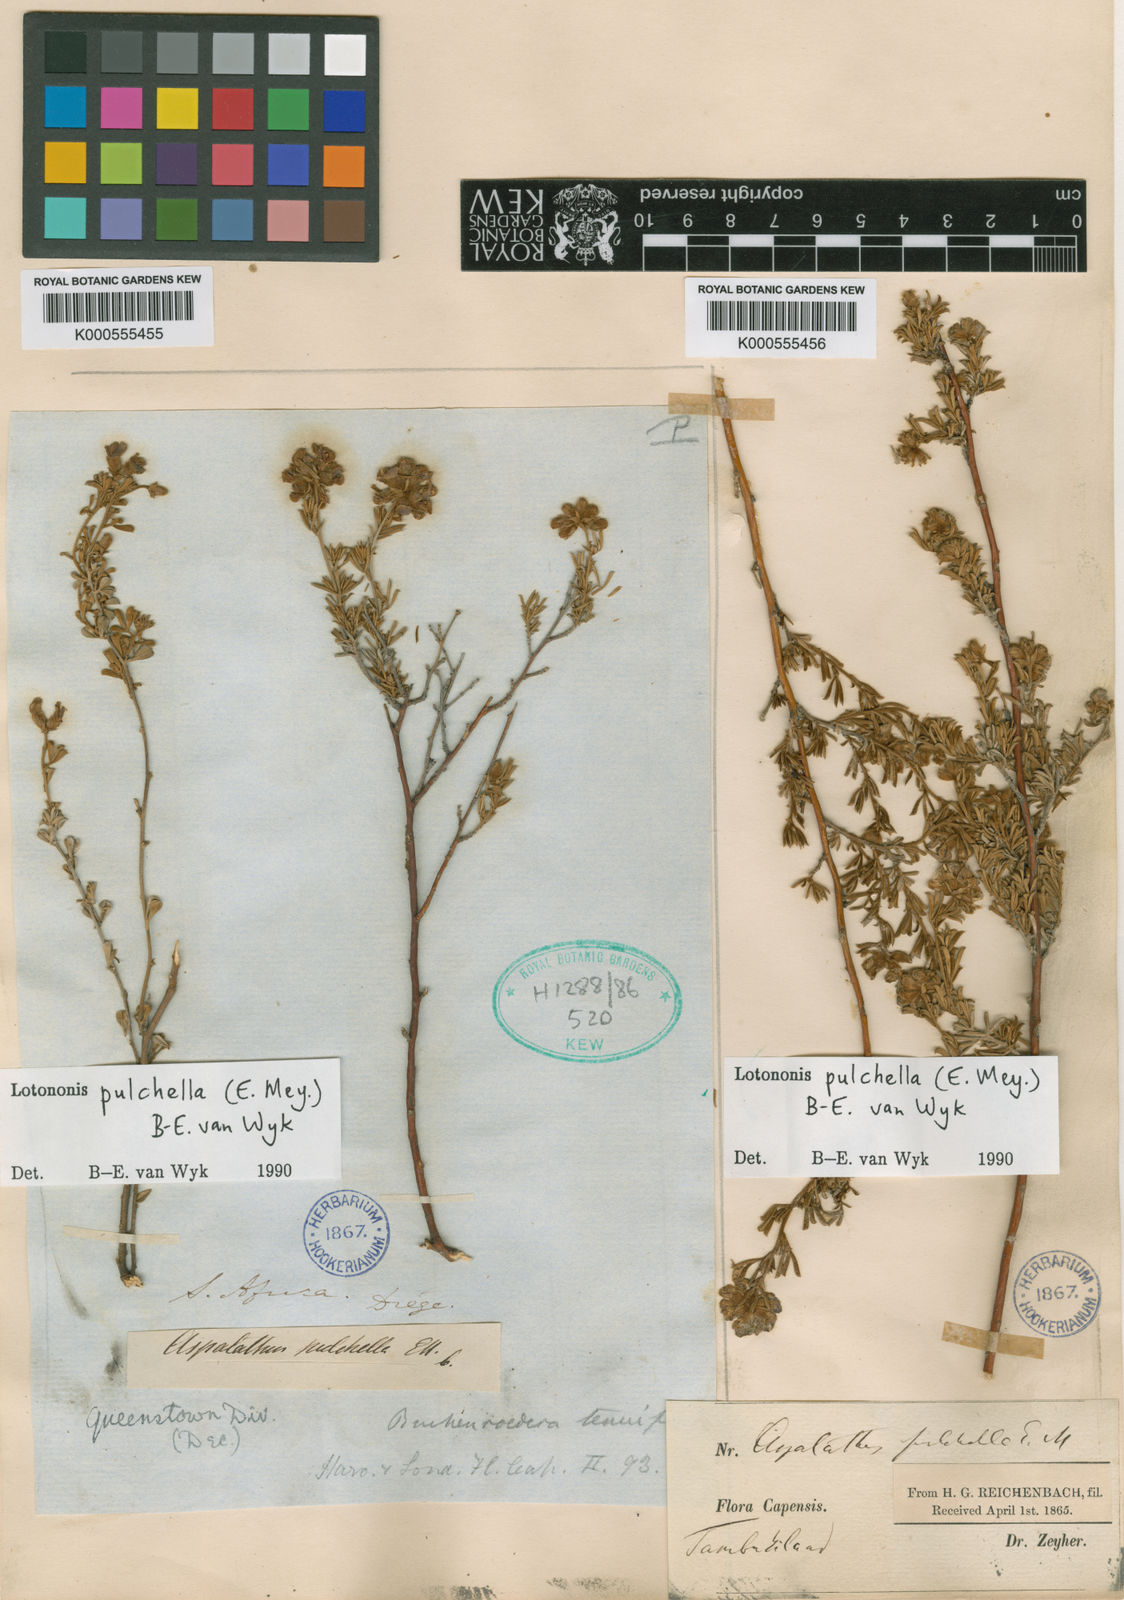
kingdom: Plantae
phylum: Tracheophyta
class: Magnoliopsida
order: Fabales
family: Fabaceae
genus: Lotononis
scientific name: Lotononis pulchella
